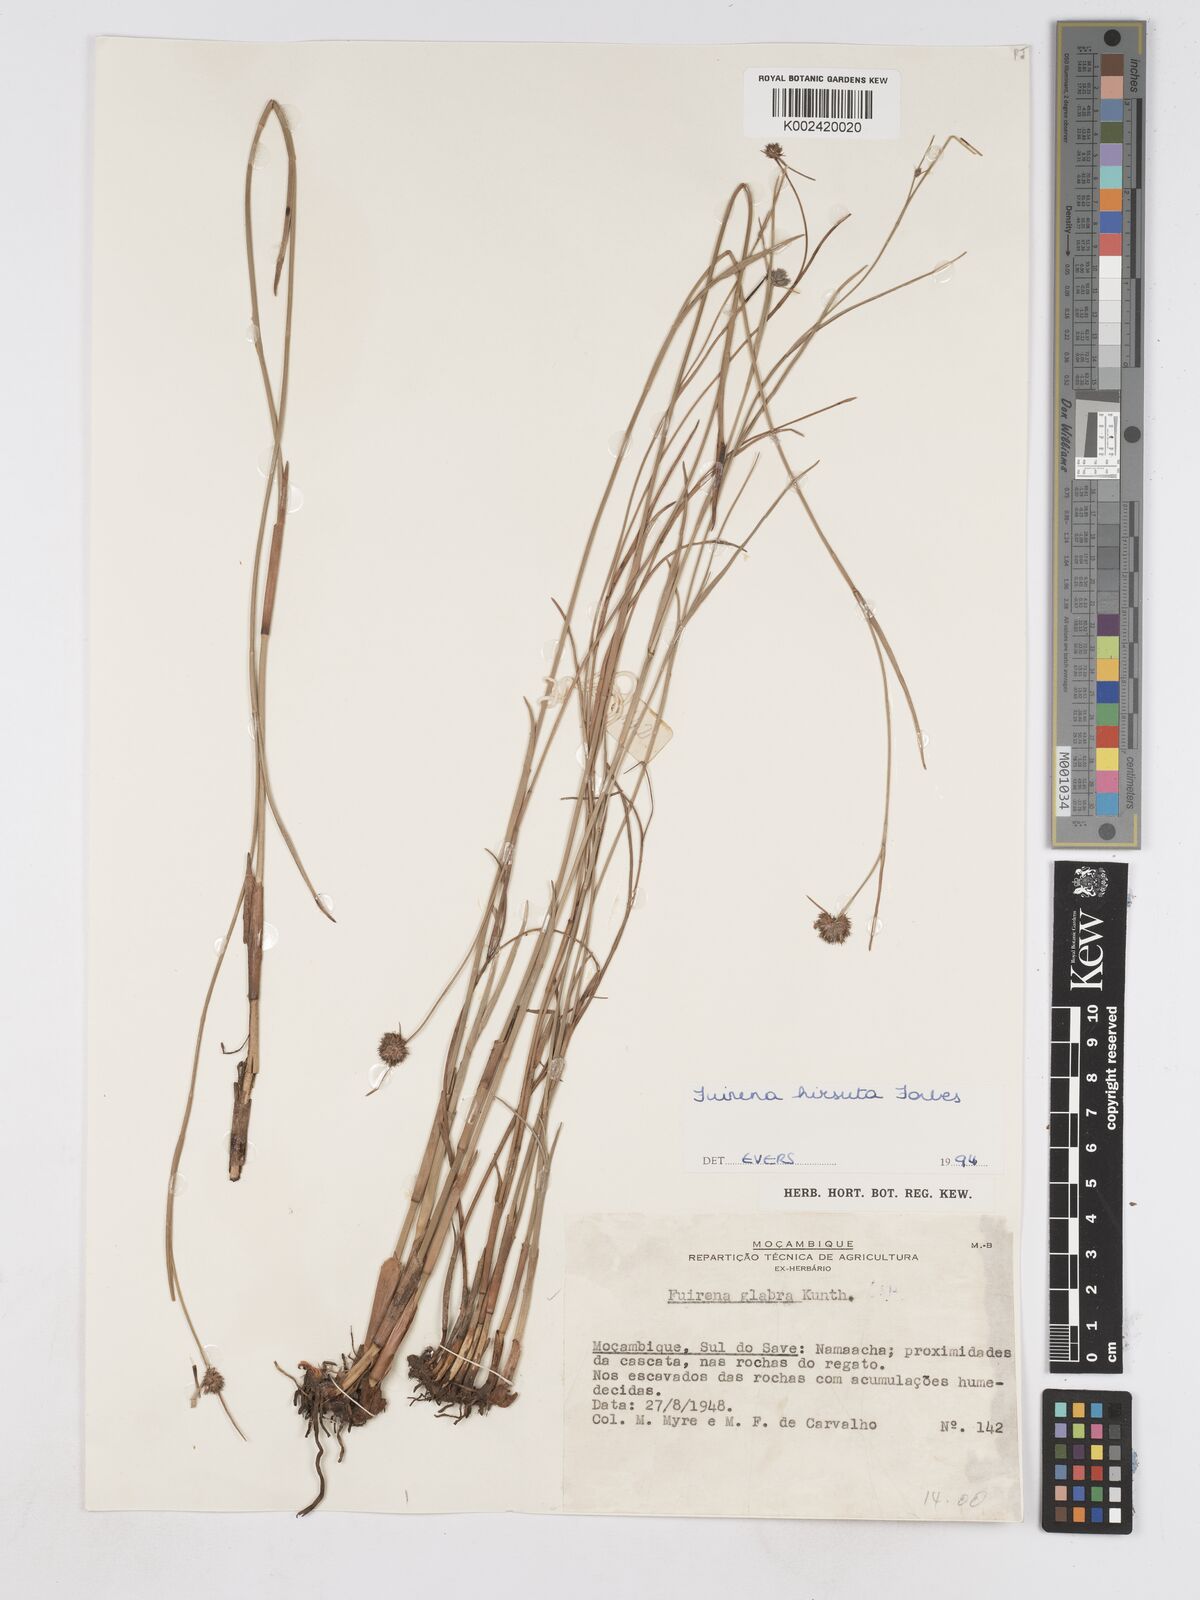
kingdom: Plantae
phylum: Tracheophyta
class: Liliopsida
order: Poales
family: Cyperaceae
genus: Fuirena
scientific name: Fuirena hirsuta
